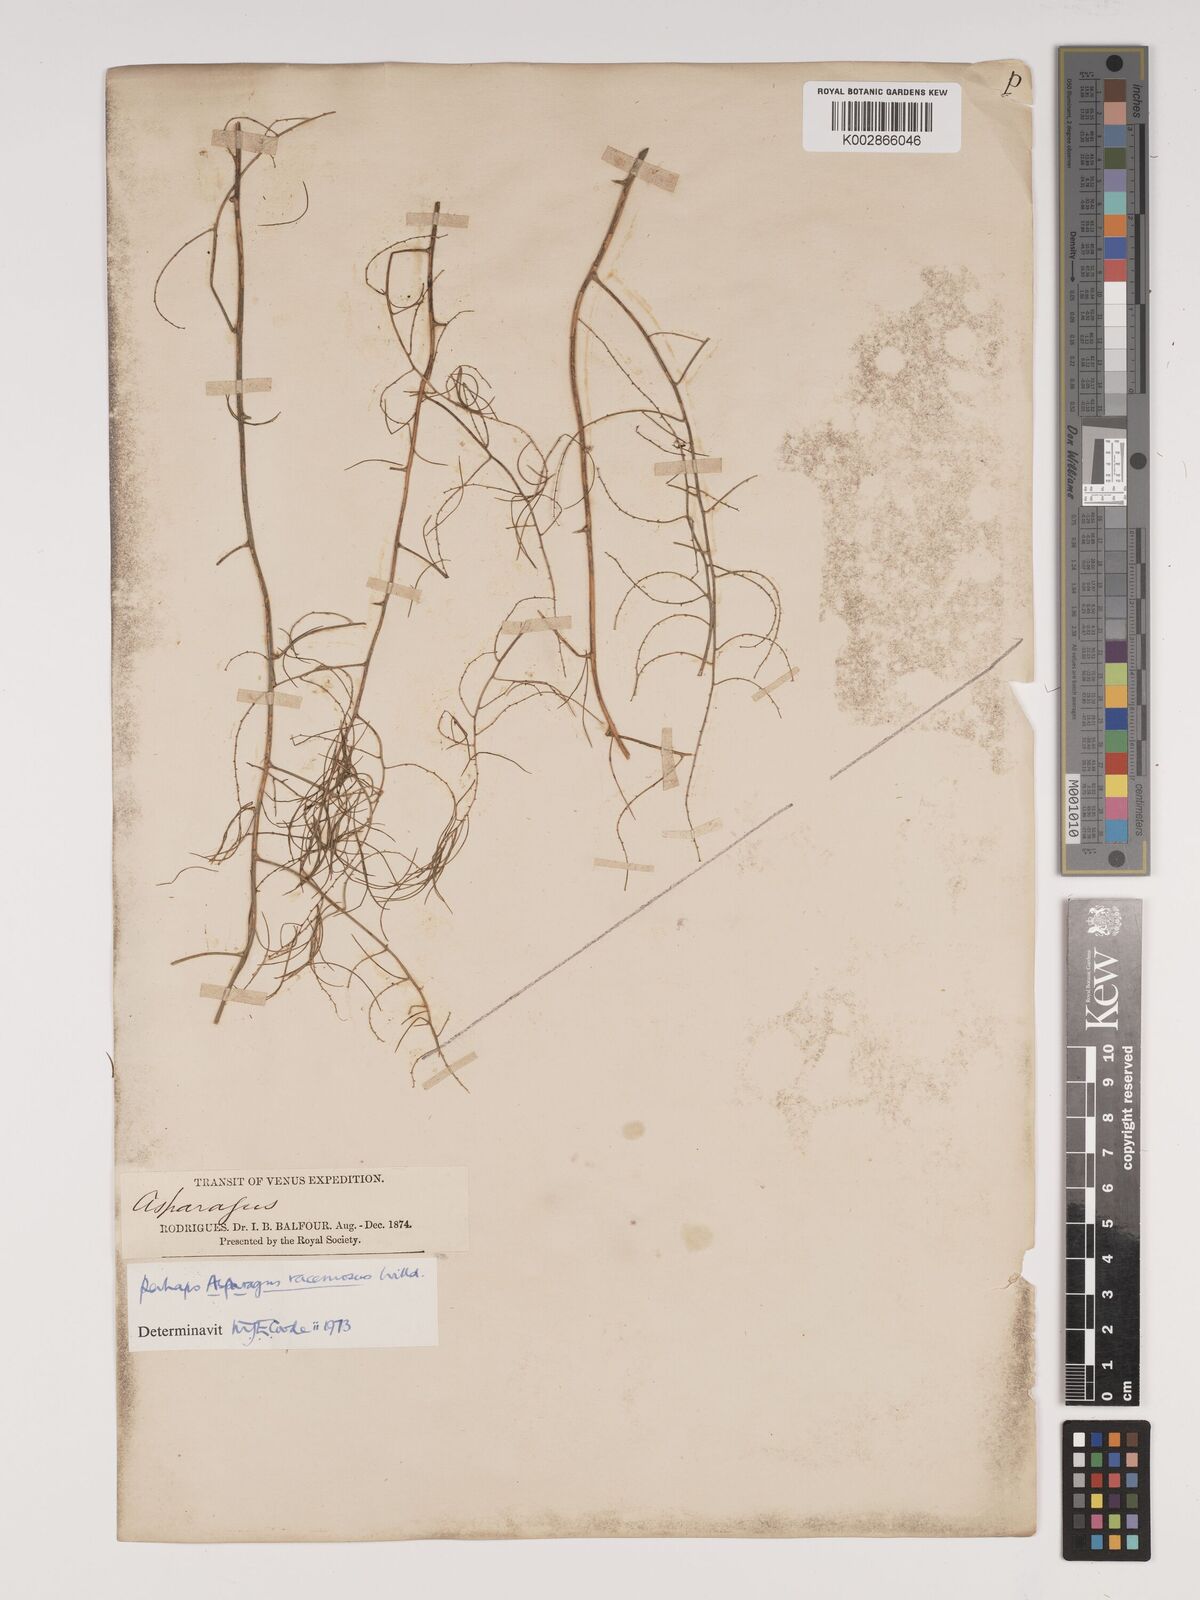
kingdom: Plantae
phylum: Tracheophyta
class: Liliopsida
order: Asparagales
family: Asparagaceae
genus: Asparagus
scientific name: Asparagus racemosus
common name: Asparagus-fern
